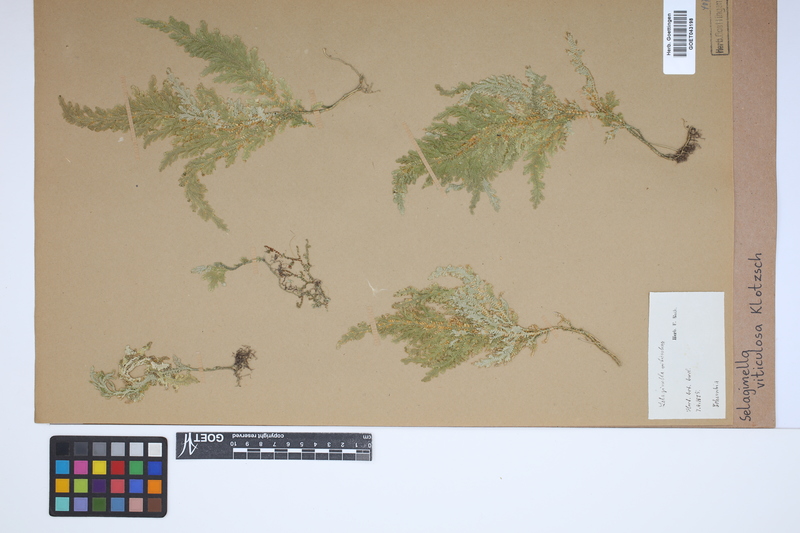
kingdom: Plantae
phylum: Tracheophyta
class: Lycopodiopsida
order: Selaginellales
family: Selaginellaceae
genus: Selaginella
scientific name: Selaginella viticulosa
